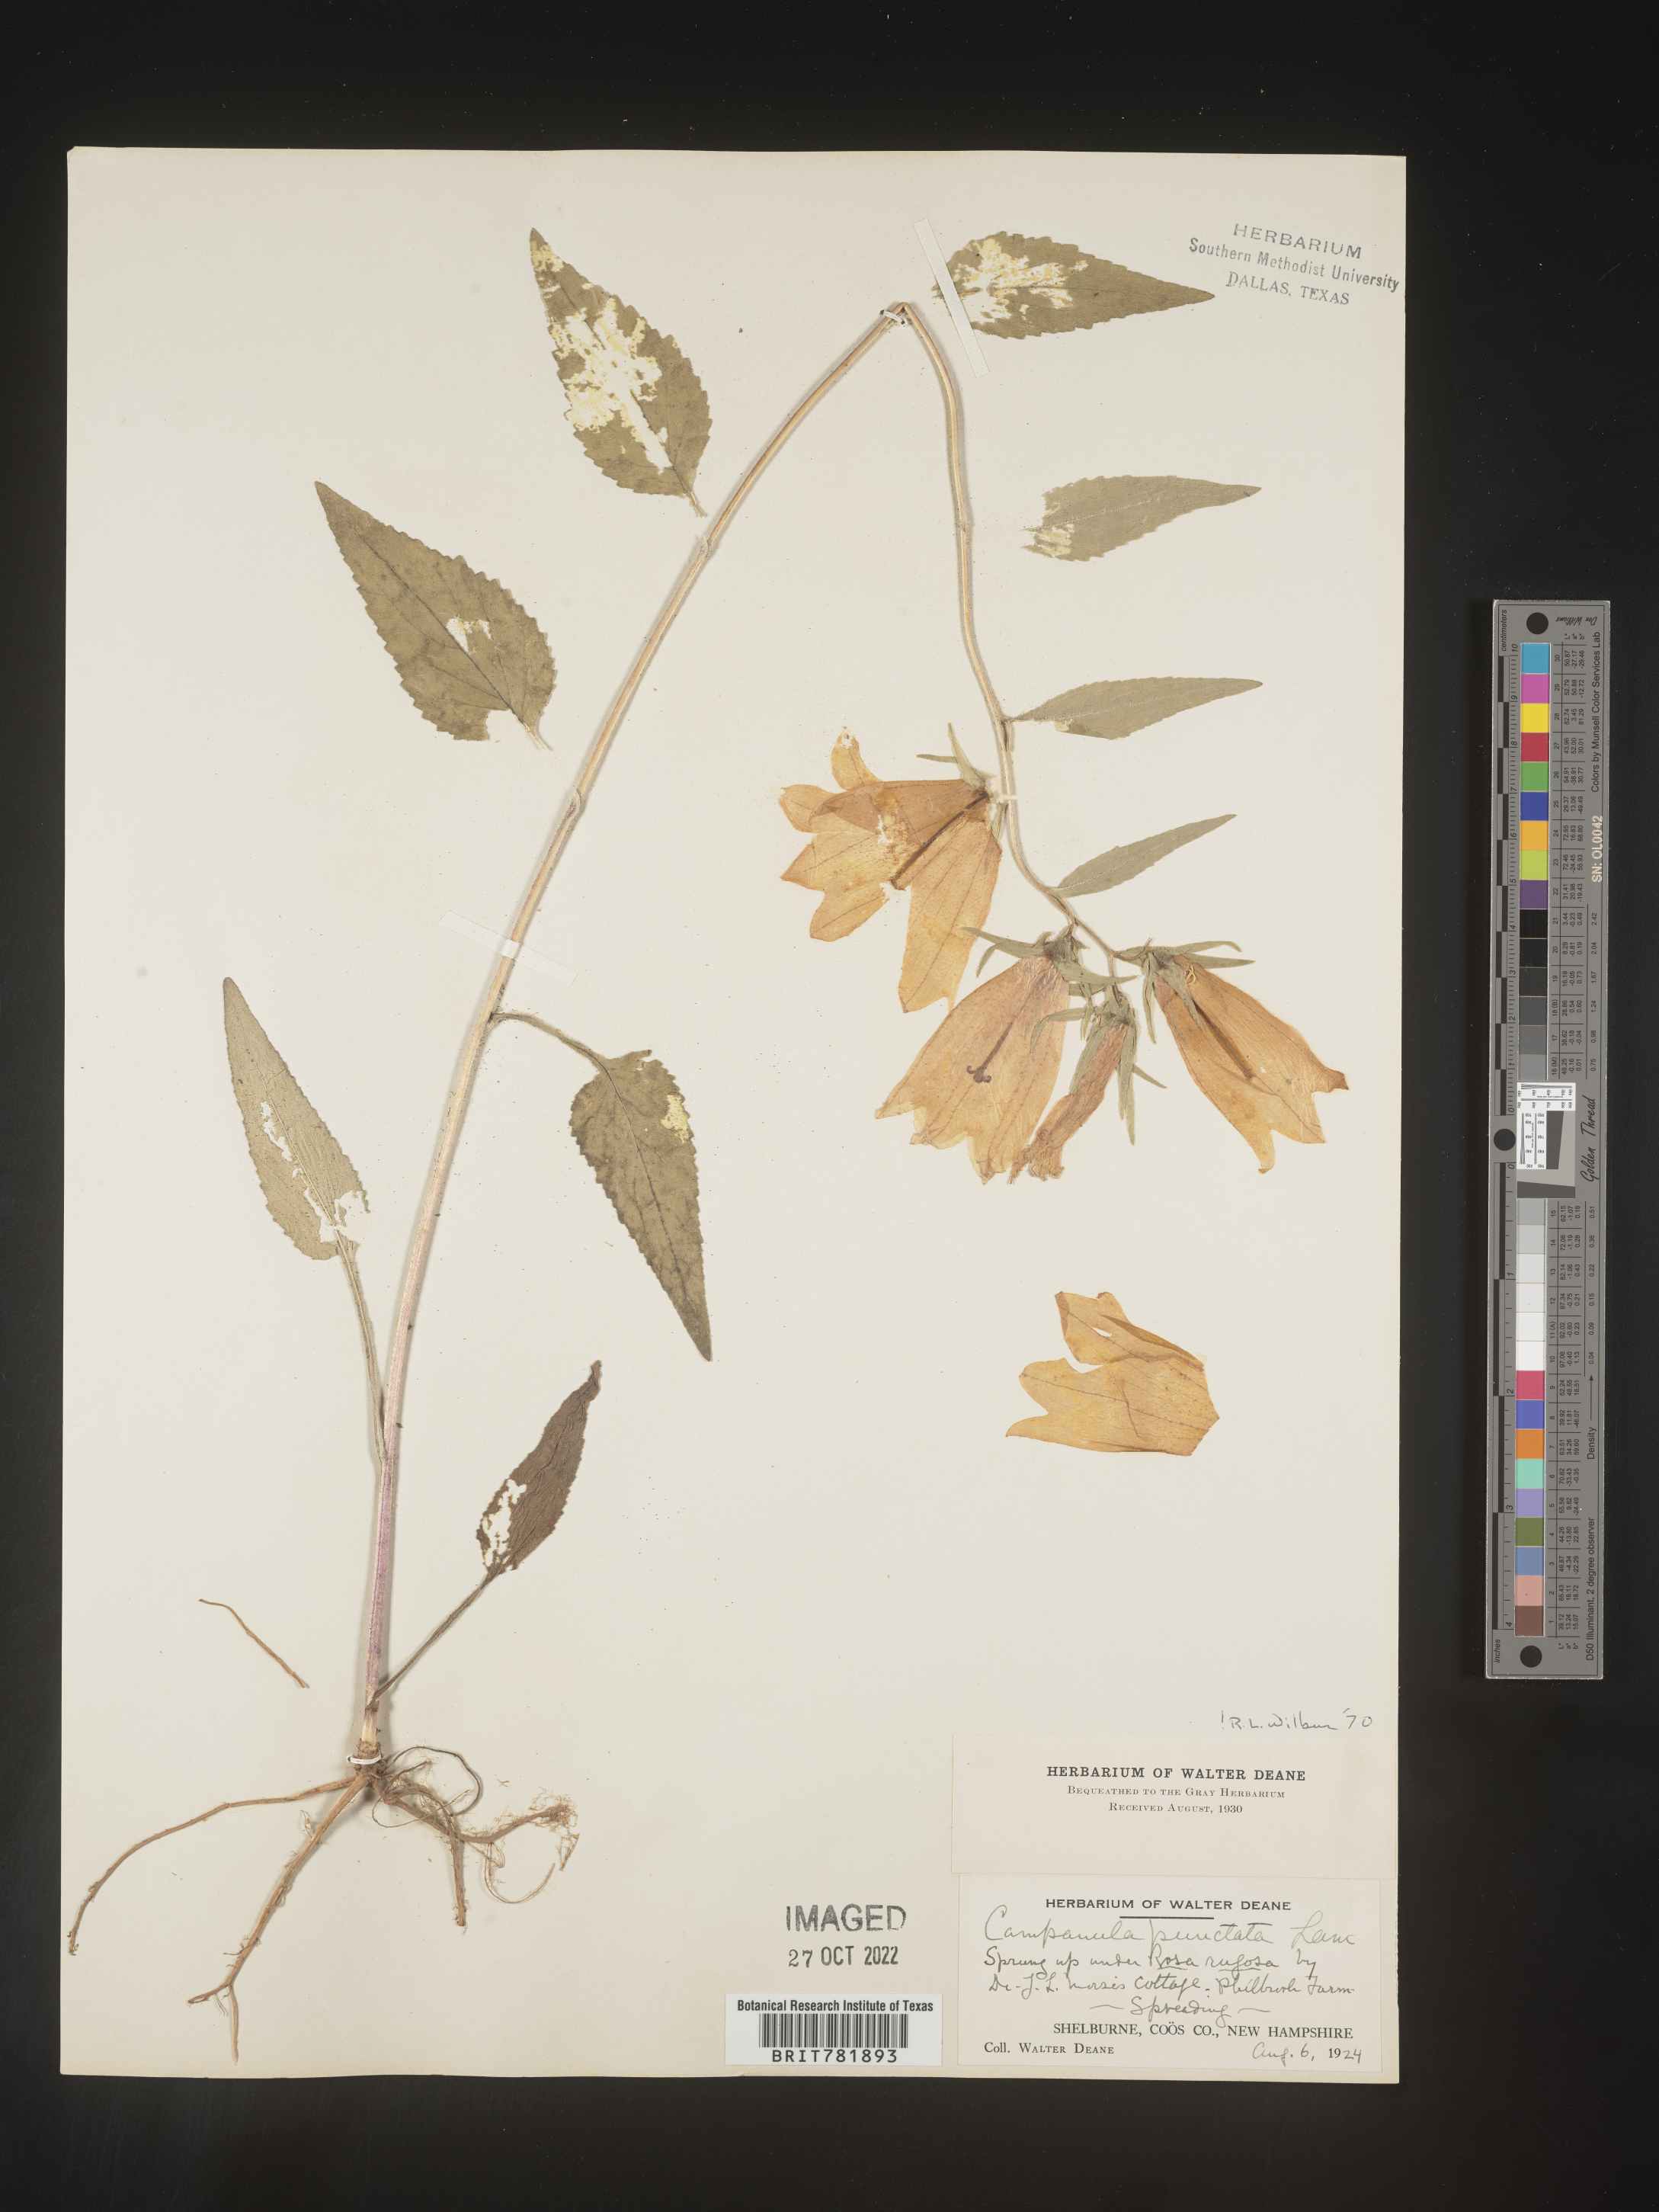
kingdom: Plantae
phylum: Tracheophyta
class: Magnoliopsida
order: Asterales
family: Campanulaceae
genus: Campanula
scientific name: Campanula
